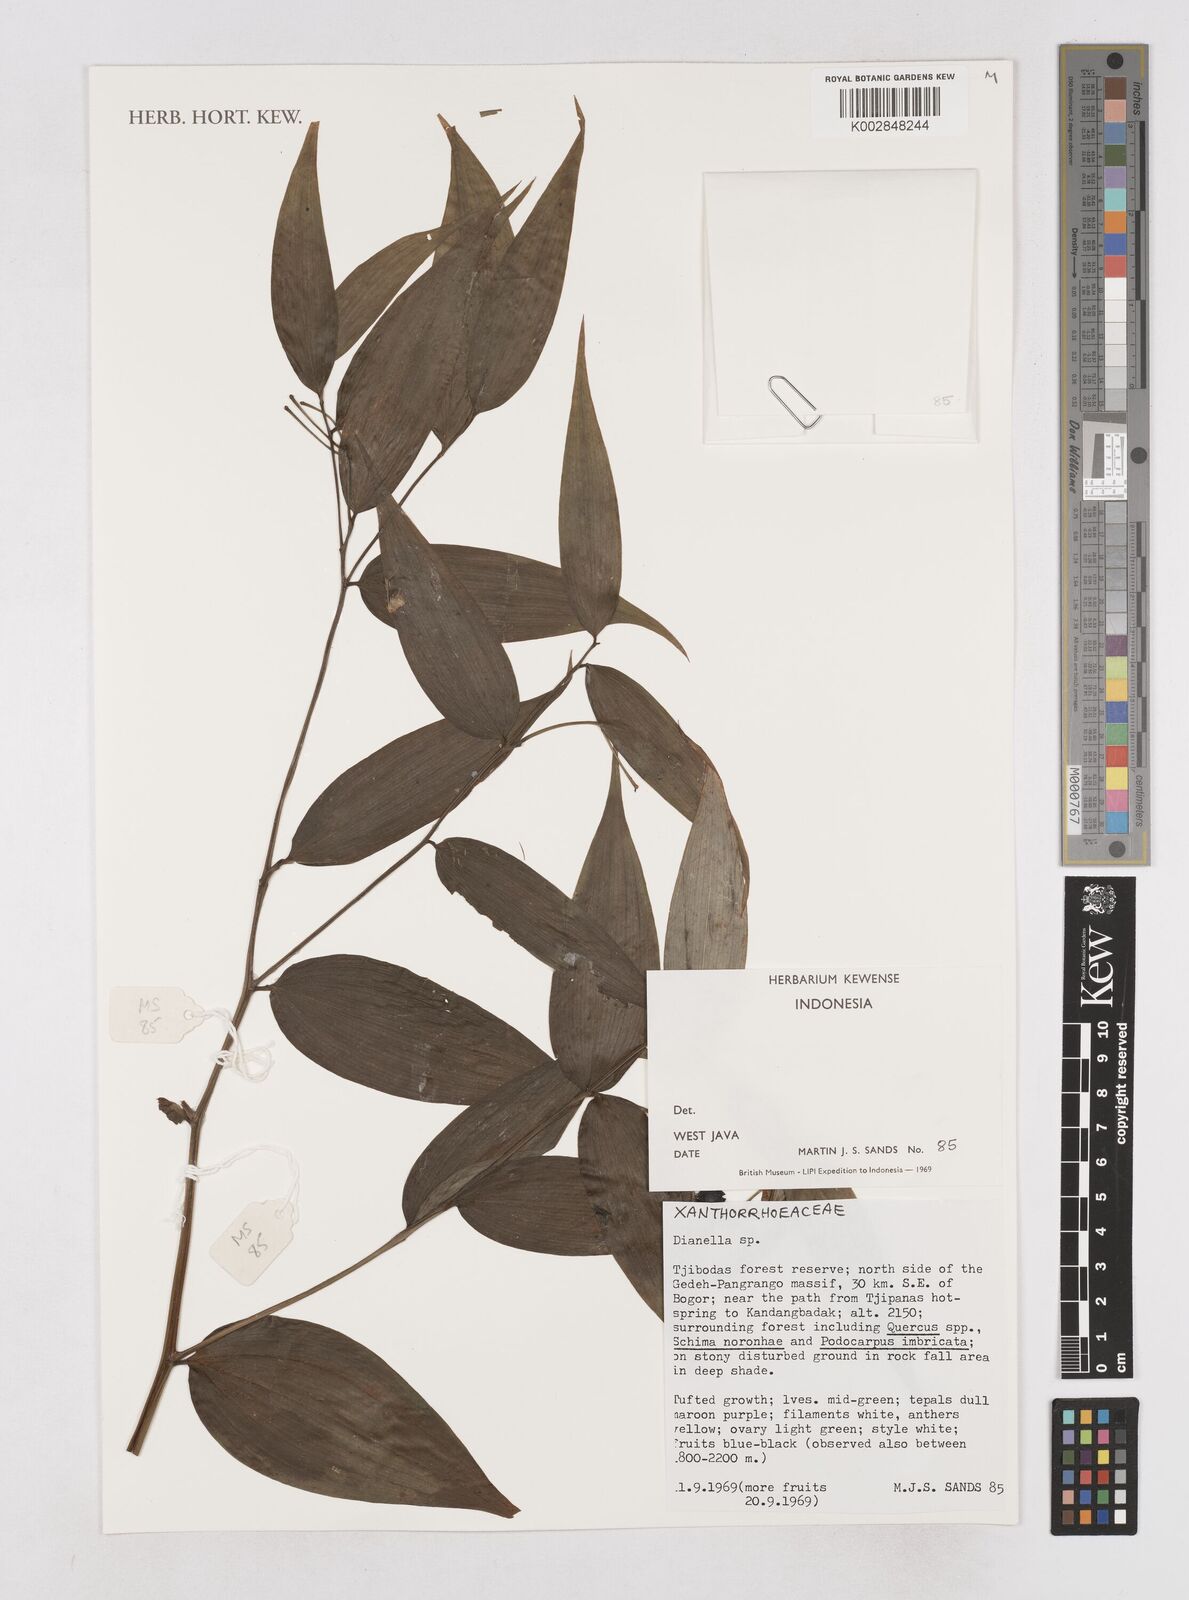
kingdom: Plantae
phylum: Tracheophyta
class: Liliopsida
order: Asparagales
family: Asphodelaceae
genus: Dianella
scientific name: Dianella
